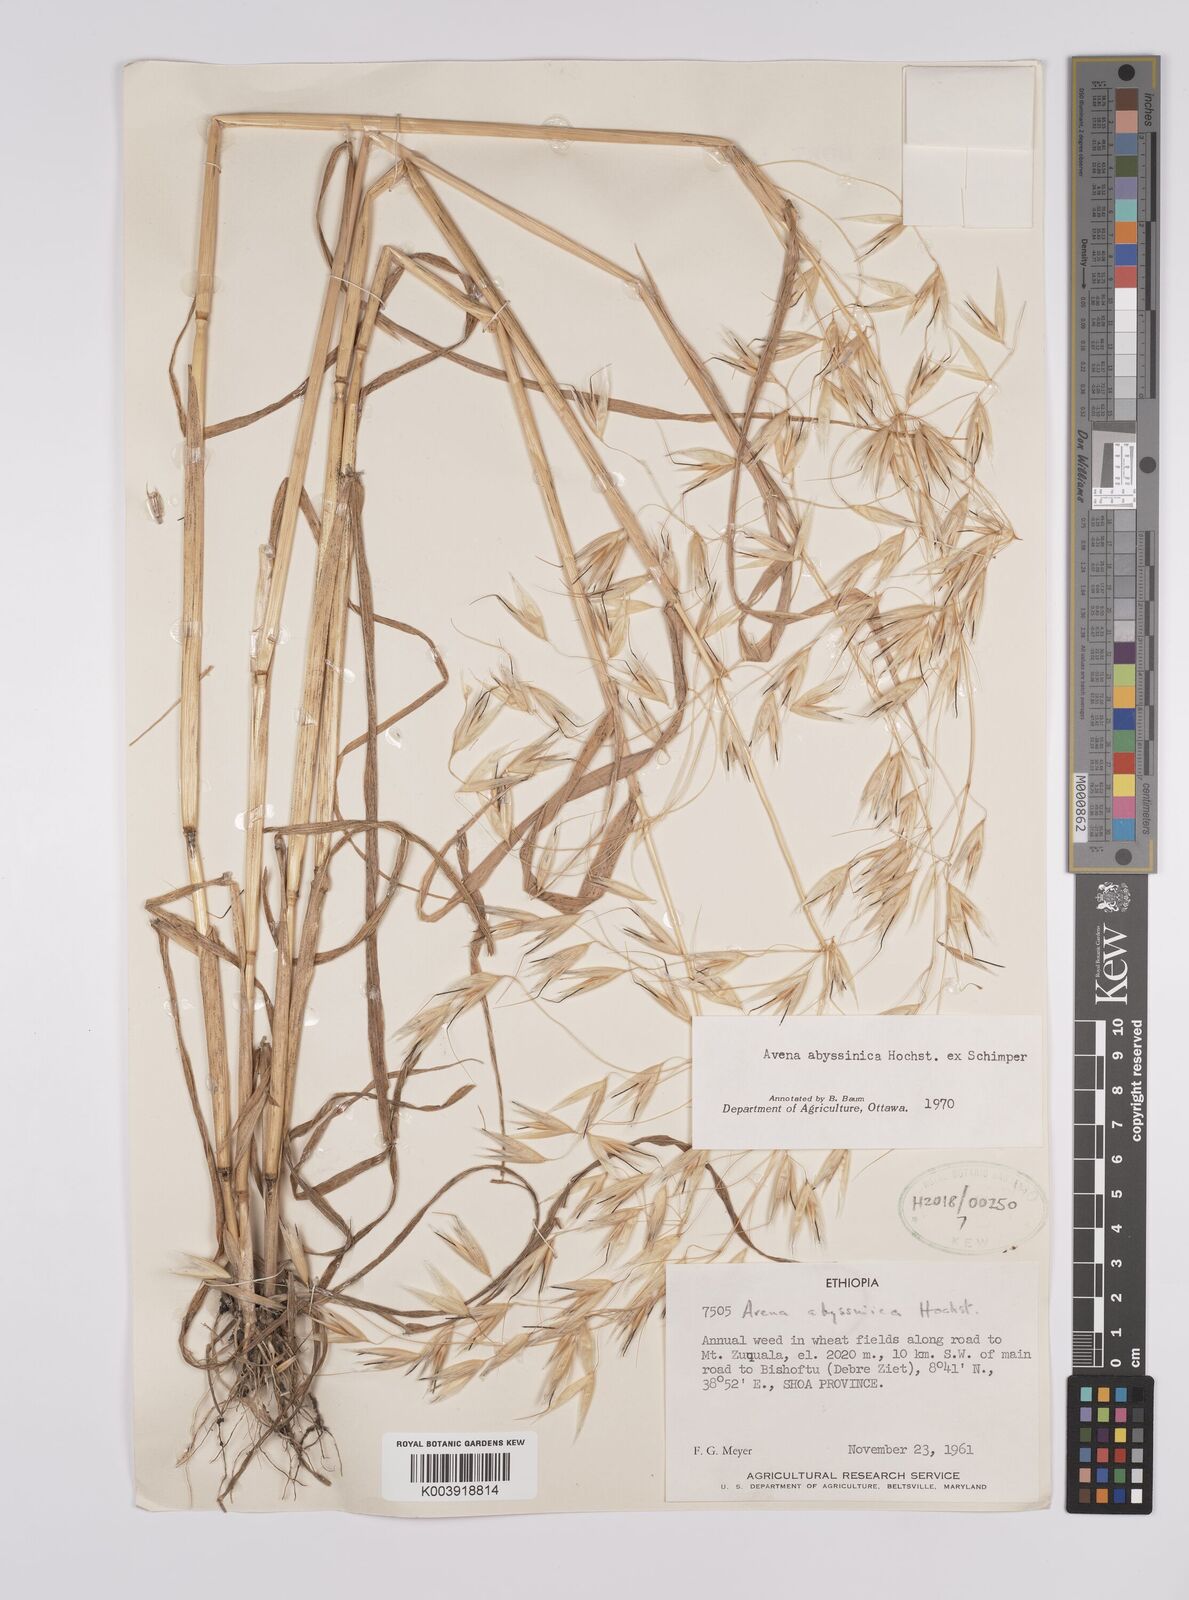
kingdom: Plantae
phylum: Tracheophyta
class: Liliopsida
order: Poales
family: Poaceae
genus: Avena
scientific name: Avena abyssinica
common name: Ethiopian oat
